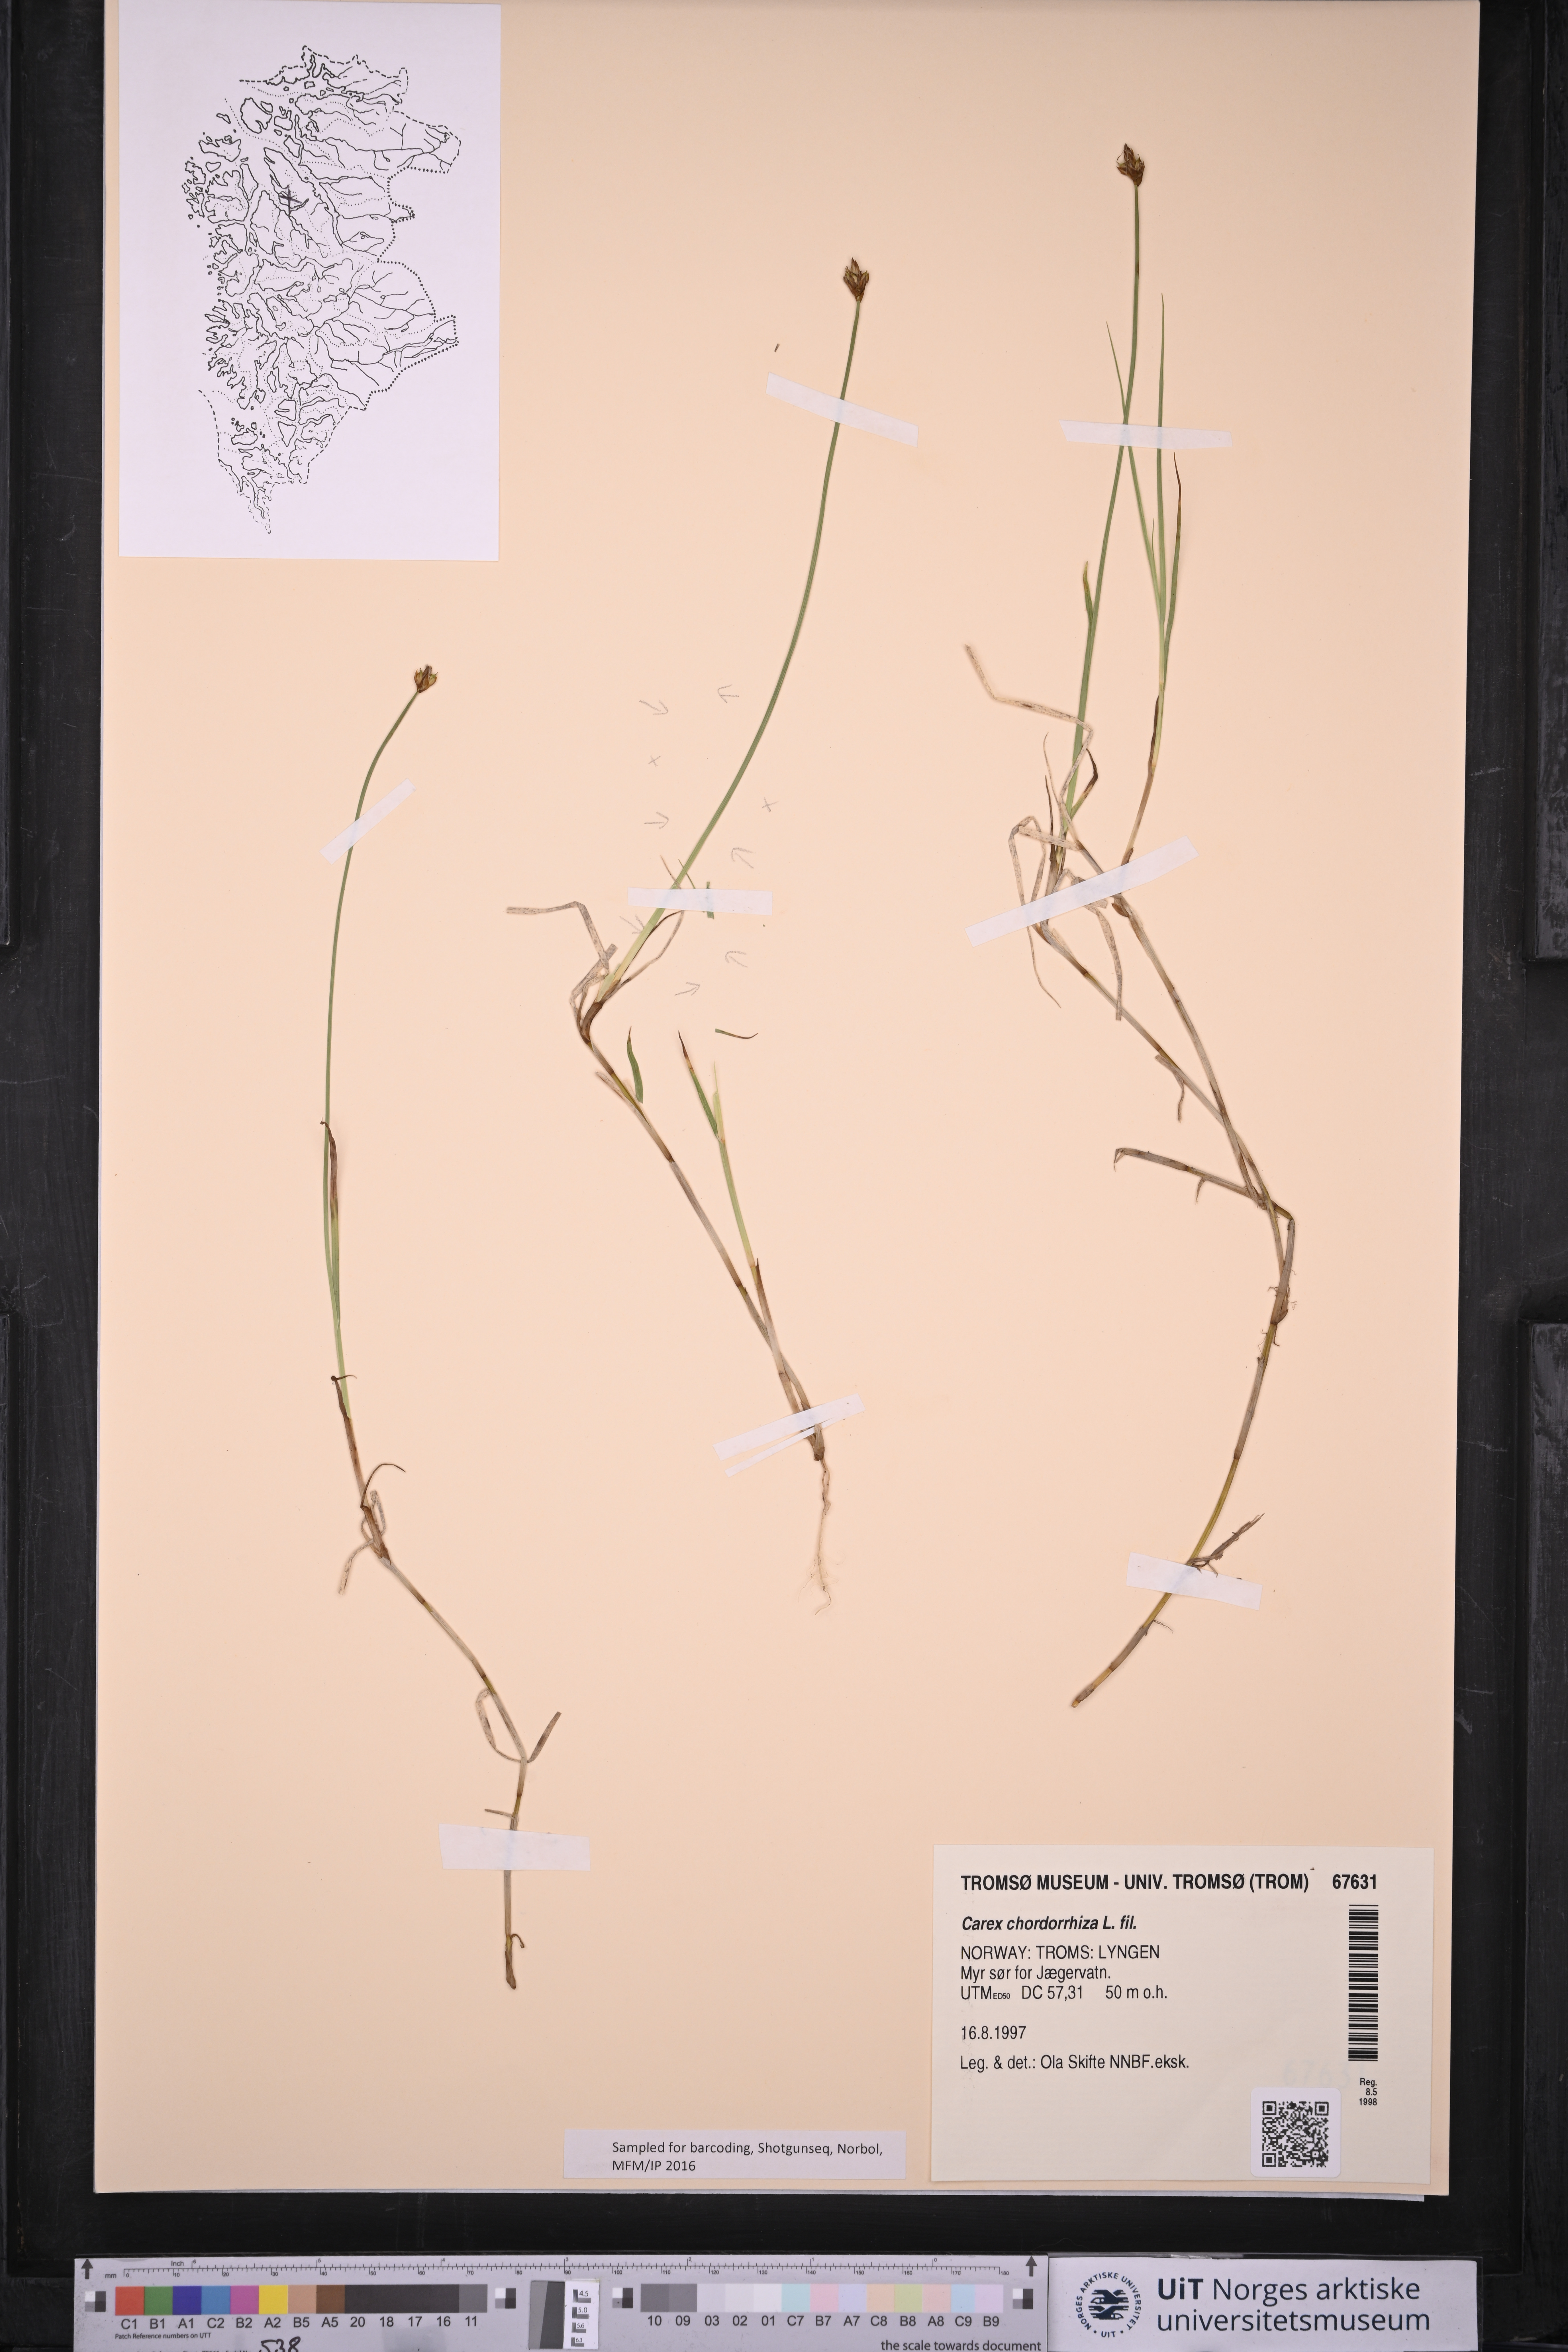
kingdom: Plantae
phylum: Tracheophyta
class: Liliopsida
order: Poales
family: Cyperaceae
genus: Carex
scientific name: Carex chordorrhiza
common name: String sedge
